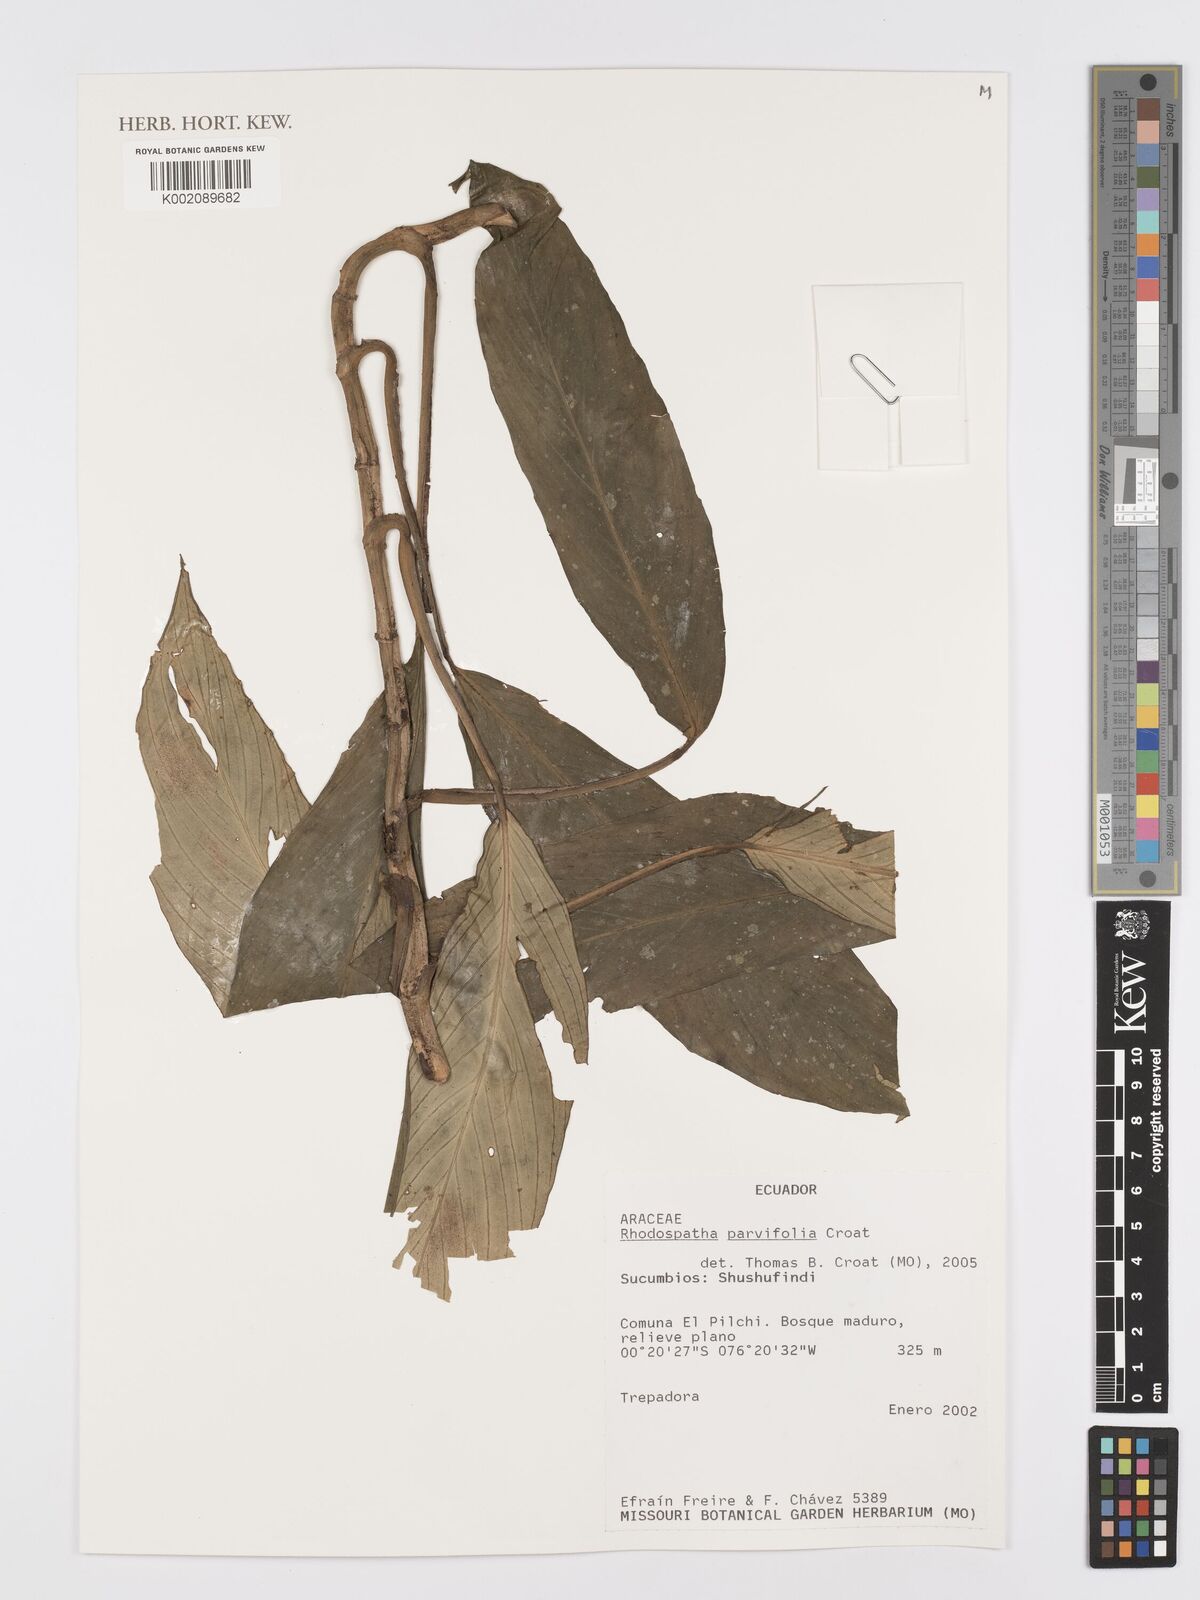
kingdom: Plantae
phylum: Tracheophyta
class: Liliopsida
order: Alismatales
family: Araceae
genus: Rhodospatha
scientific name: Rhodospatha
